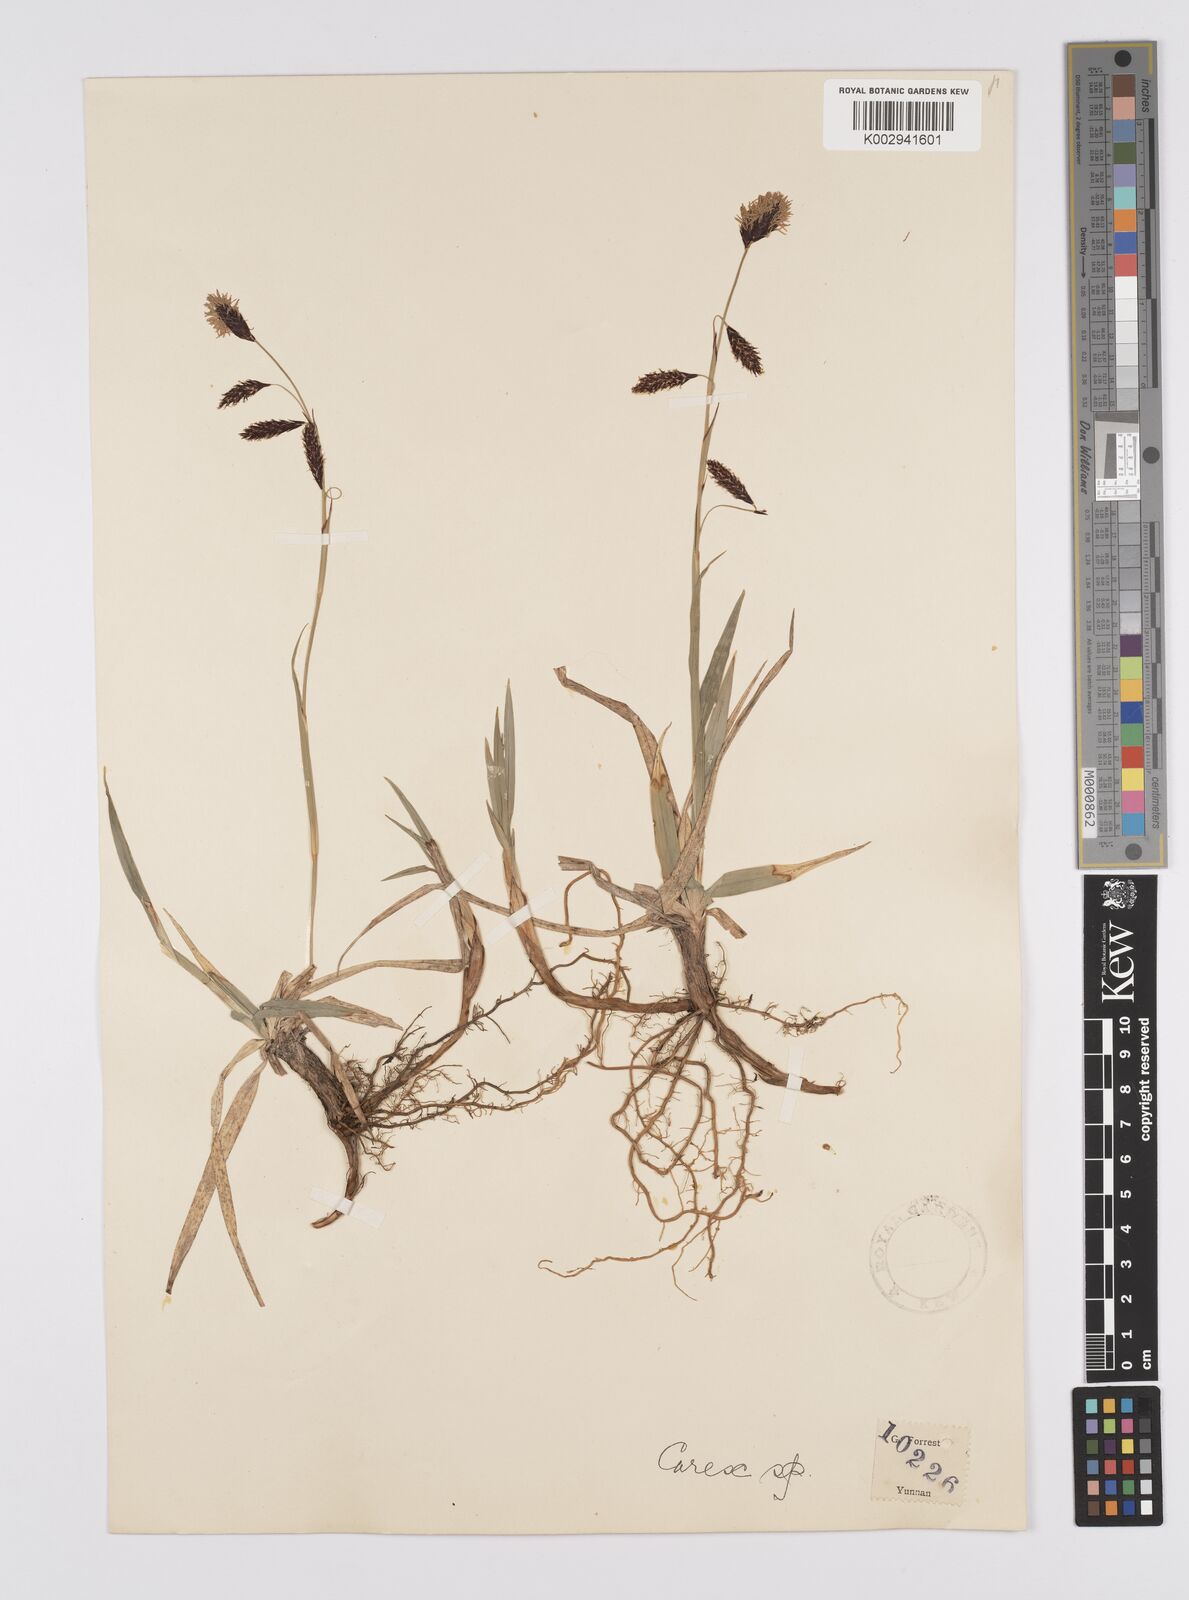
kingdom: Plantae
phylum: Tracheophyta
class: Liliopsida
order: Poales
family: Cyperaceae
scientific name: Cyperaceae
